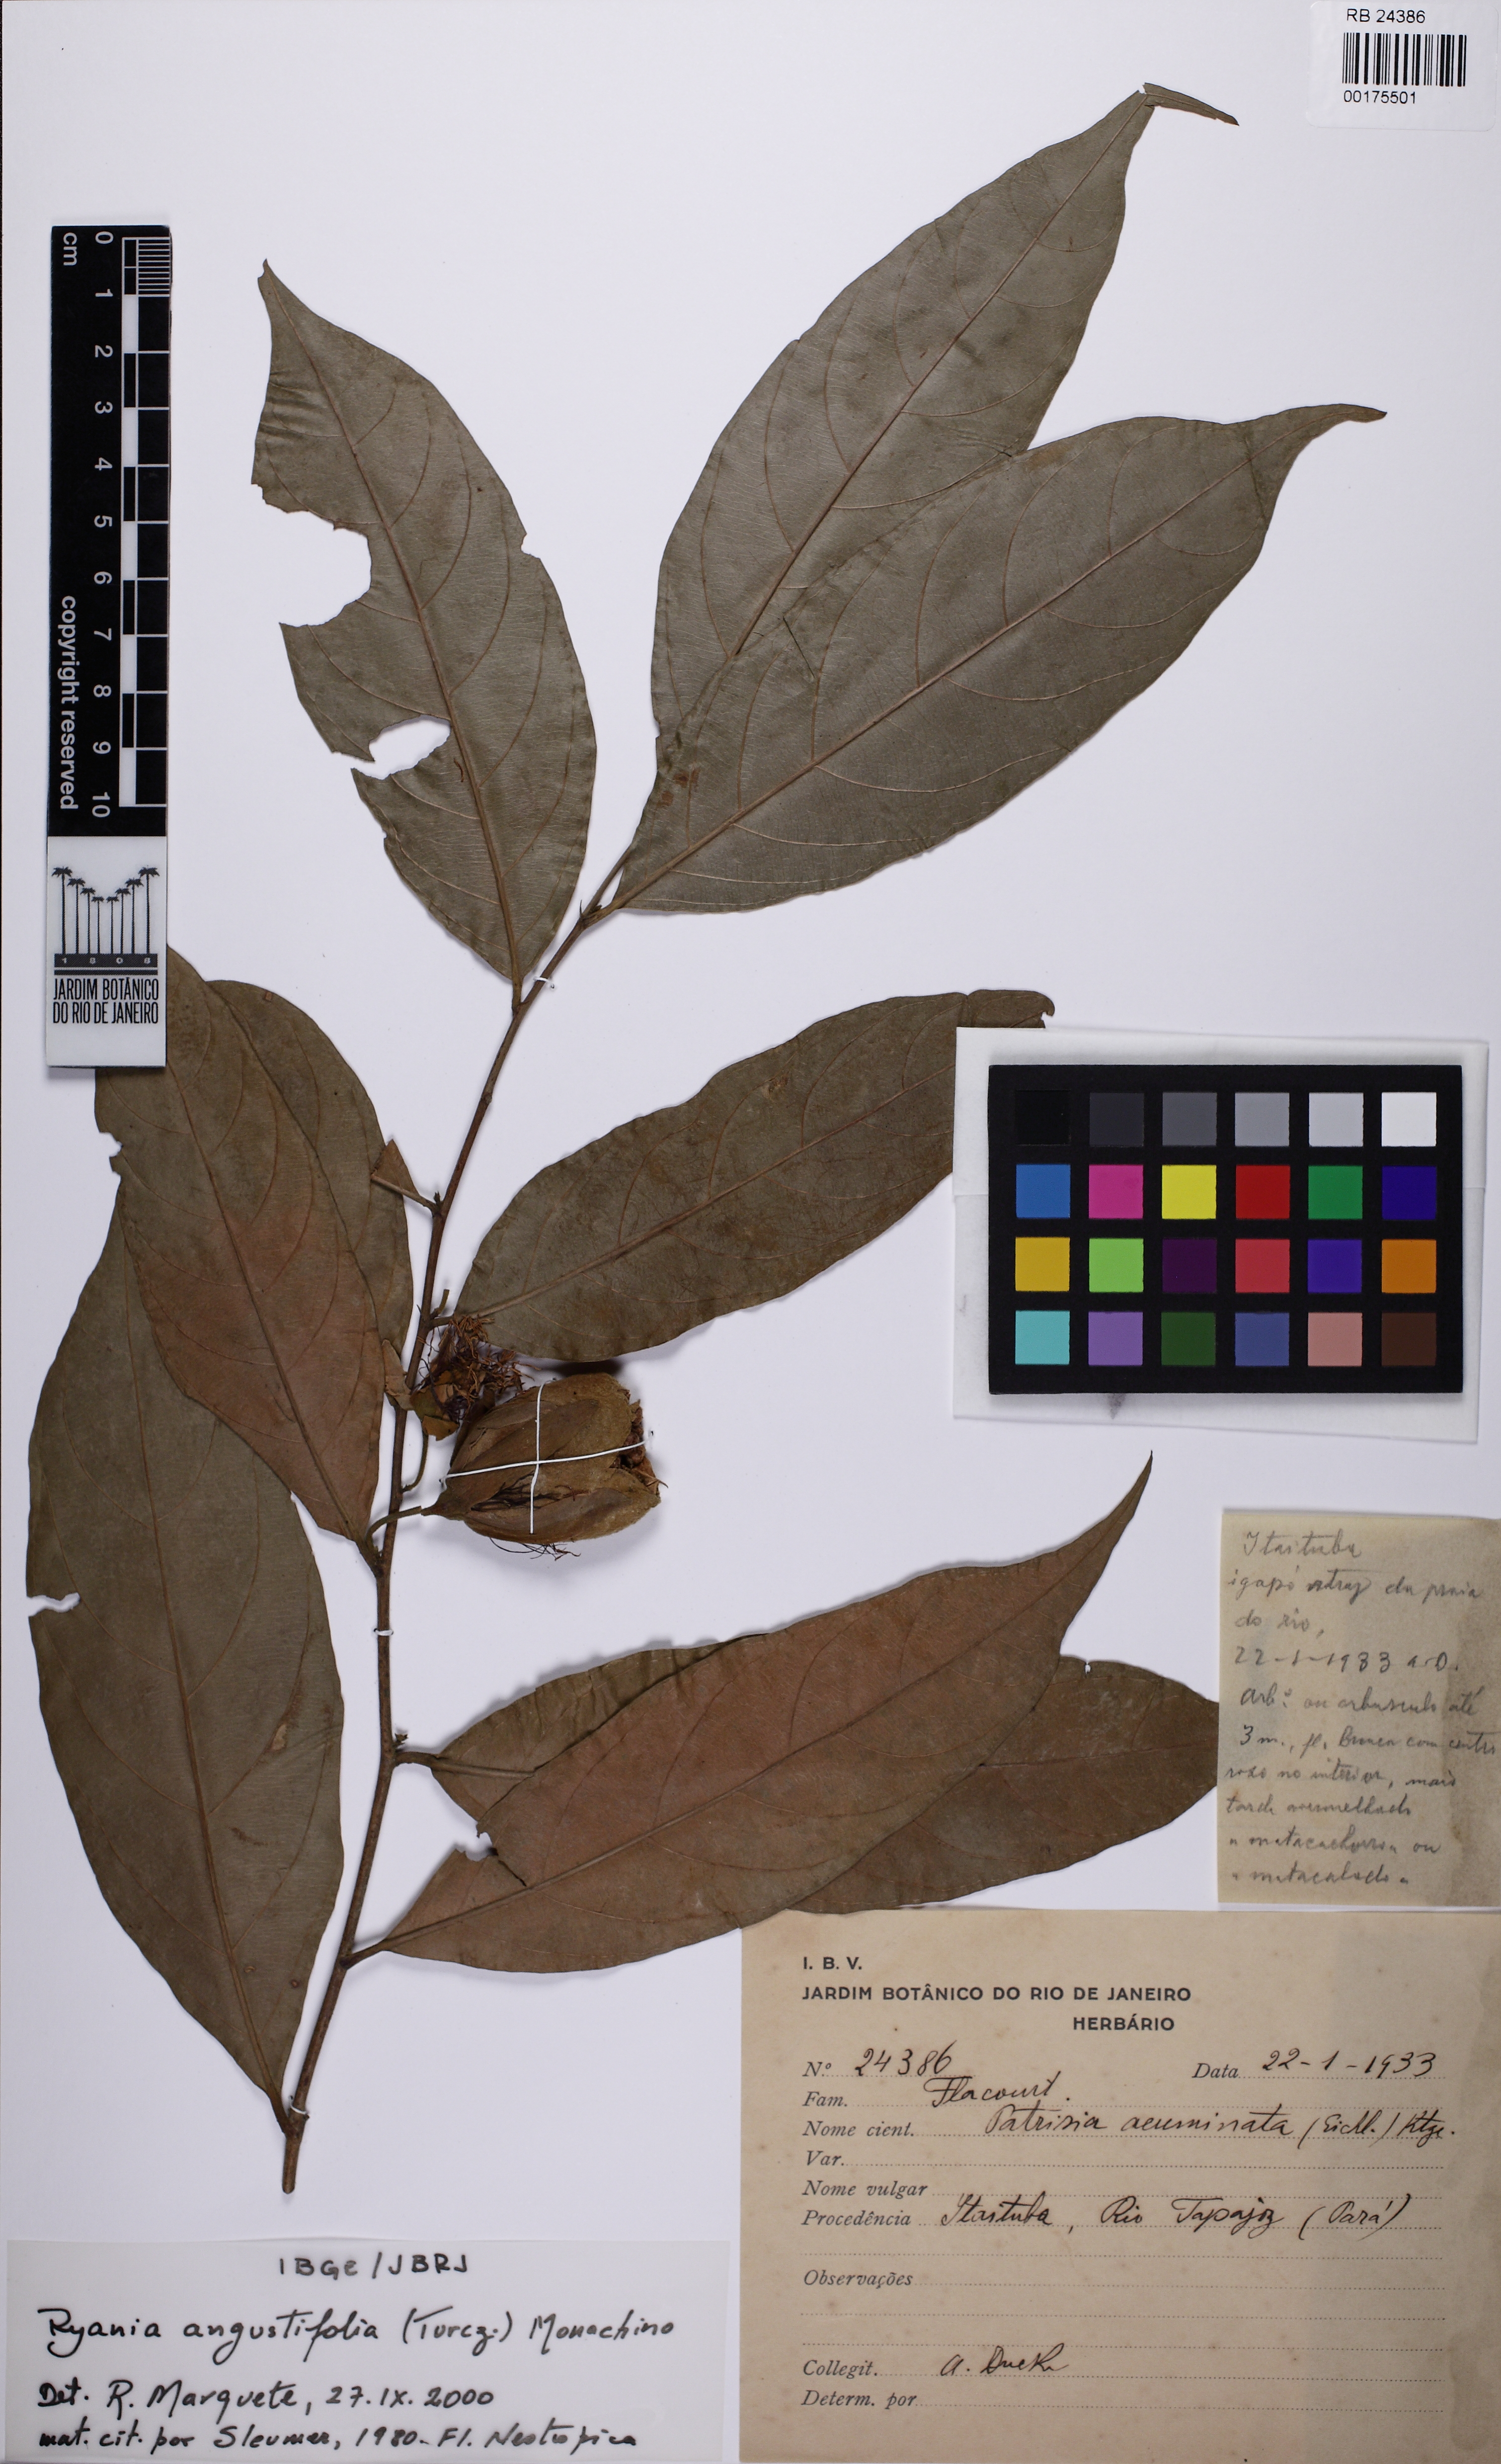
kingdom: Plantae
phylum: Tracheophyta
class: Magnoliopsida
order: Malpighiales
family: Salicaceae
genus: Ryania
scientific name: Ryania angustifolia
